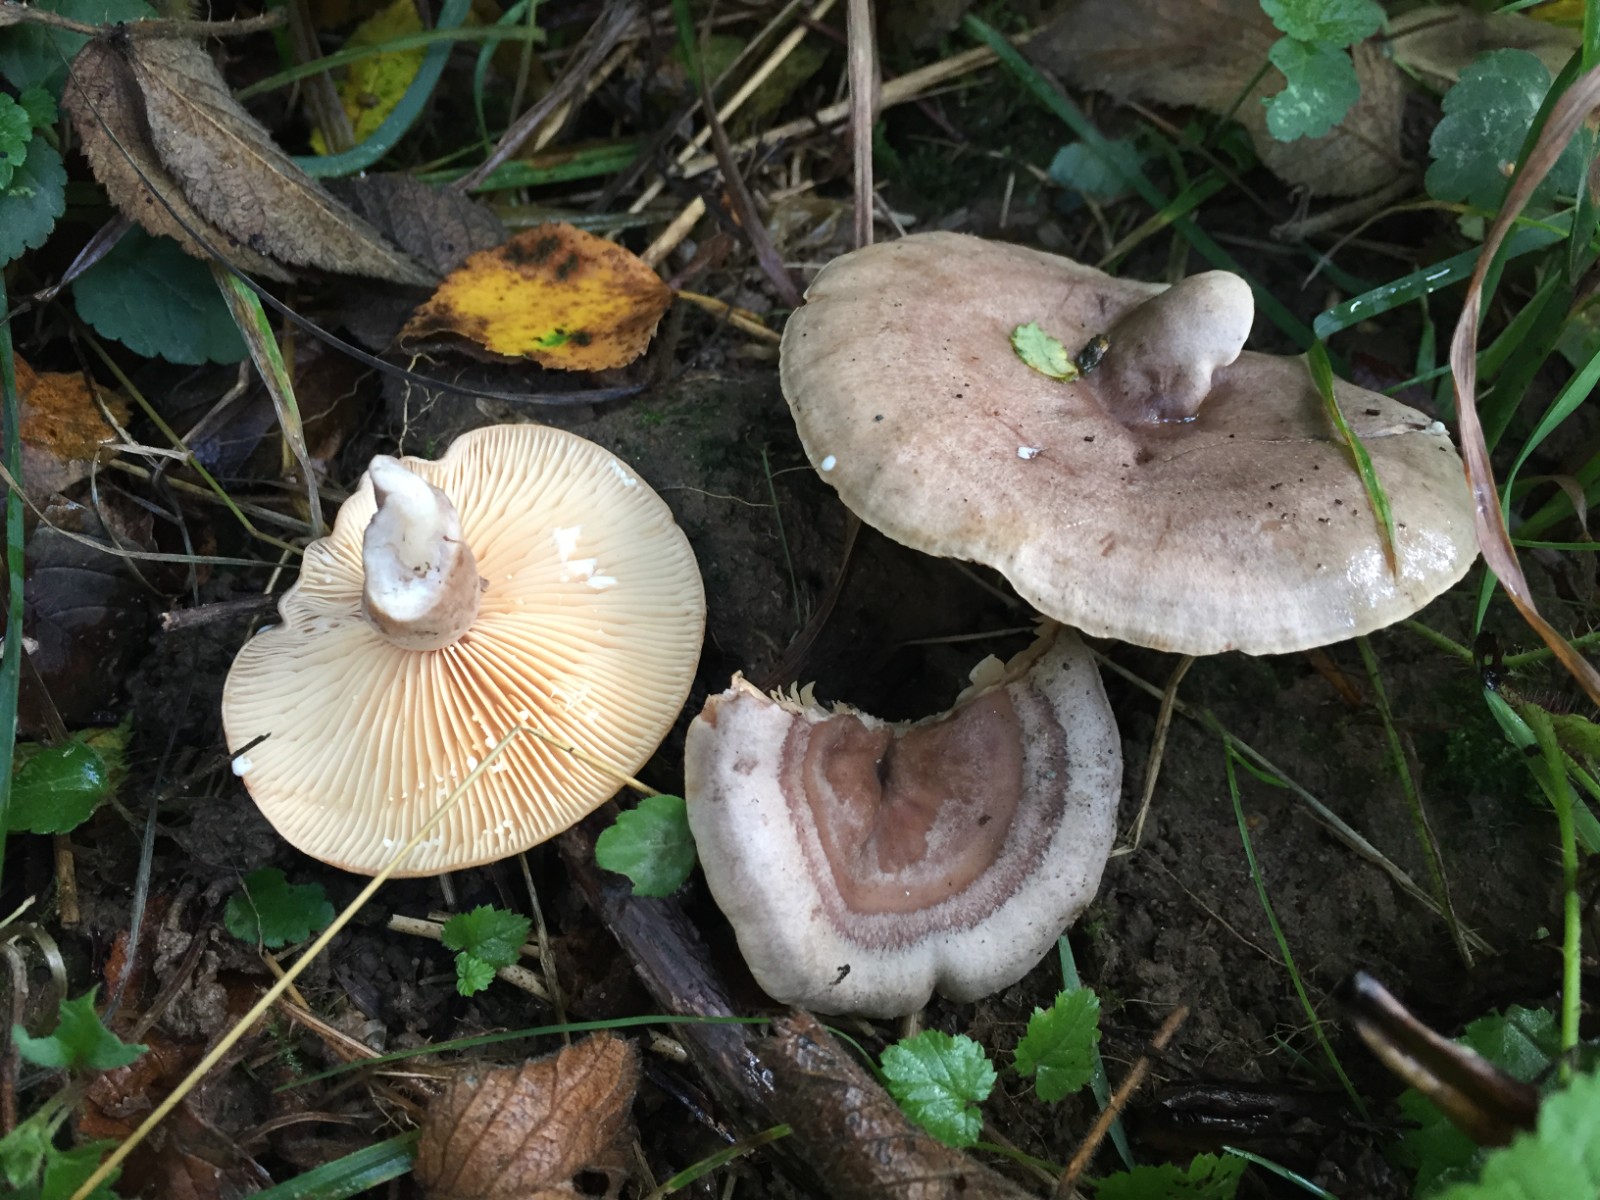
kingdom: Fungi
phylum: Basidiomycota
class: Agaricomycetes
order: Russulales
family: Russulaceae
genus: Lactarius
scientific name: Lactarius pyrogalus
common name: hassel-mælkehat
